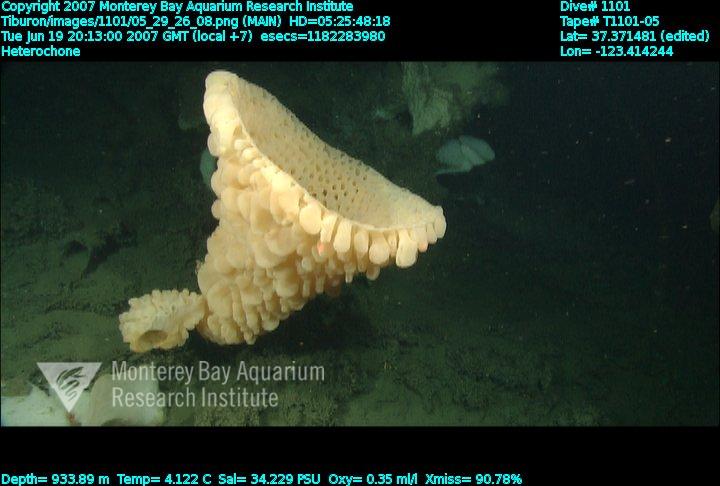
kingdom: Animalia
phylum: Porifera
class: Hexactinellida
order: Sceptrulophora
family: Aphrocallistidae
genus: Heterochone
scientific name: Heterochone
